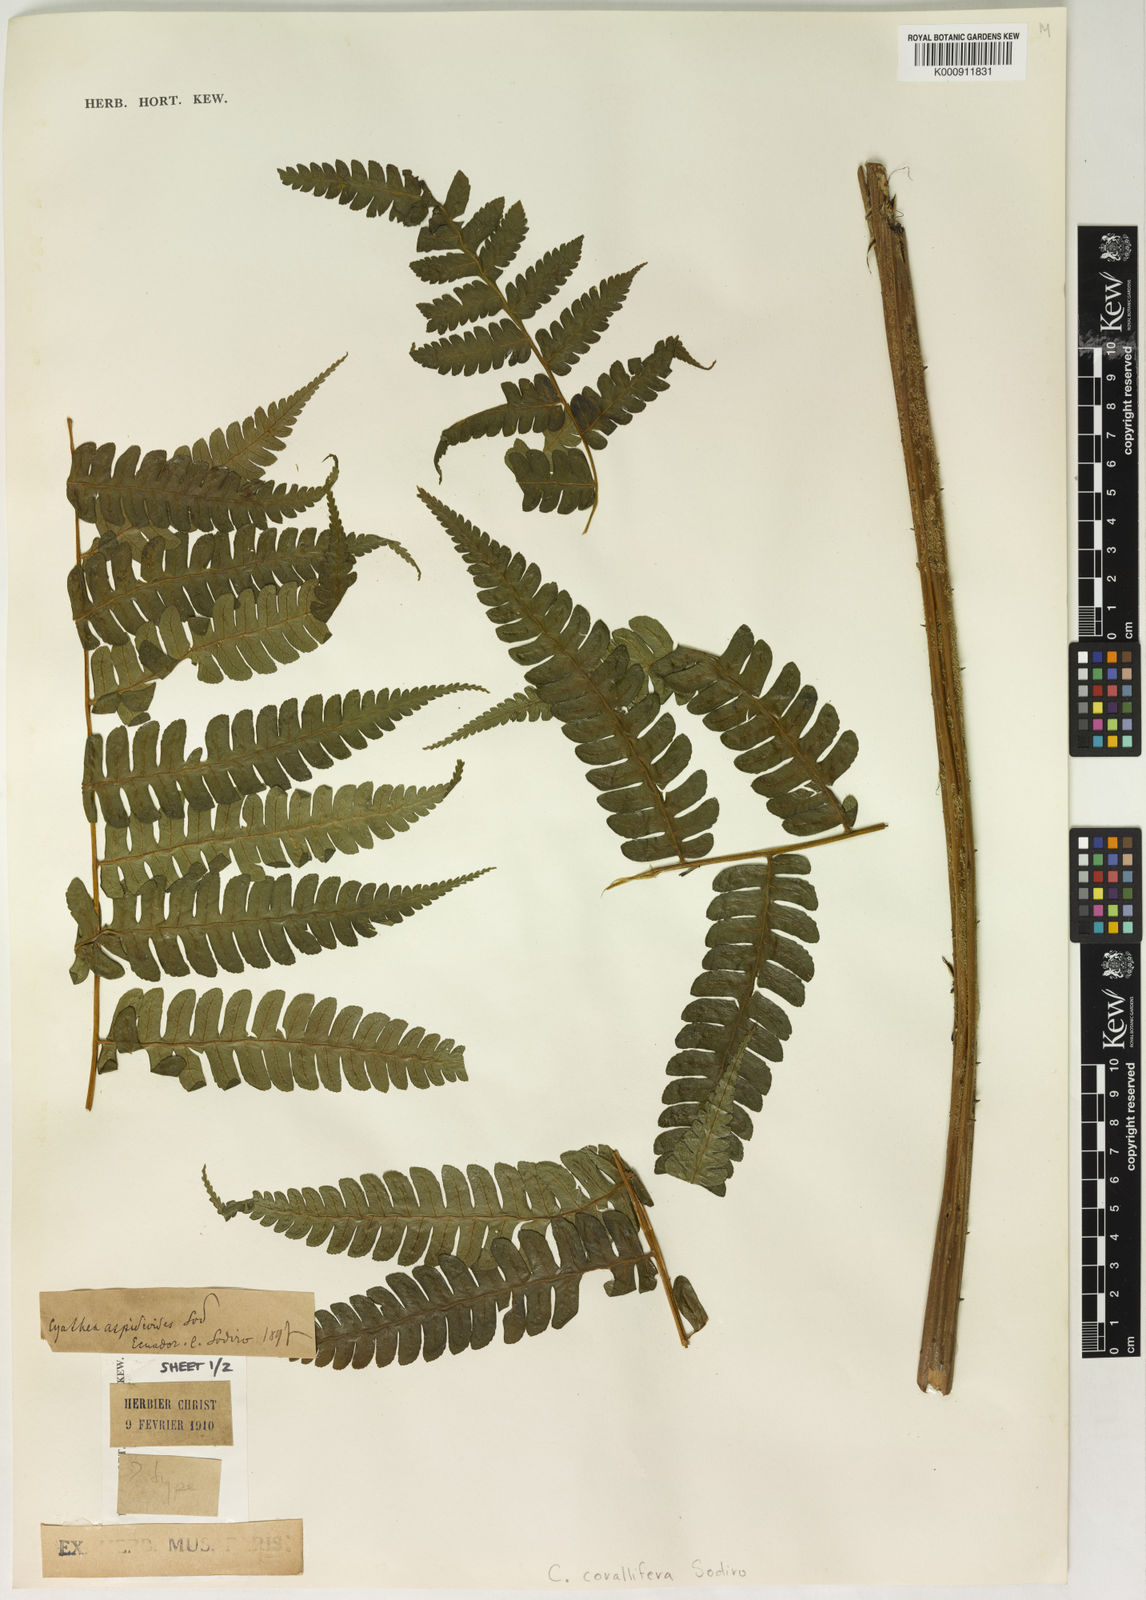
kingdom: Plantae
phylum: Tracheophyta
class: Polypodiopsida
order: Cyatheales
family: Cyatheaceae
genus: Cyathea
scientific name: Cyathea corallifera
